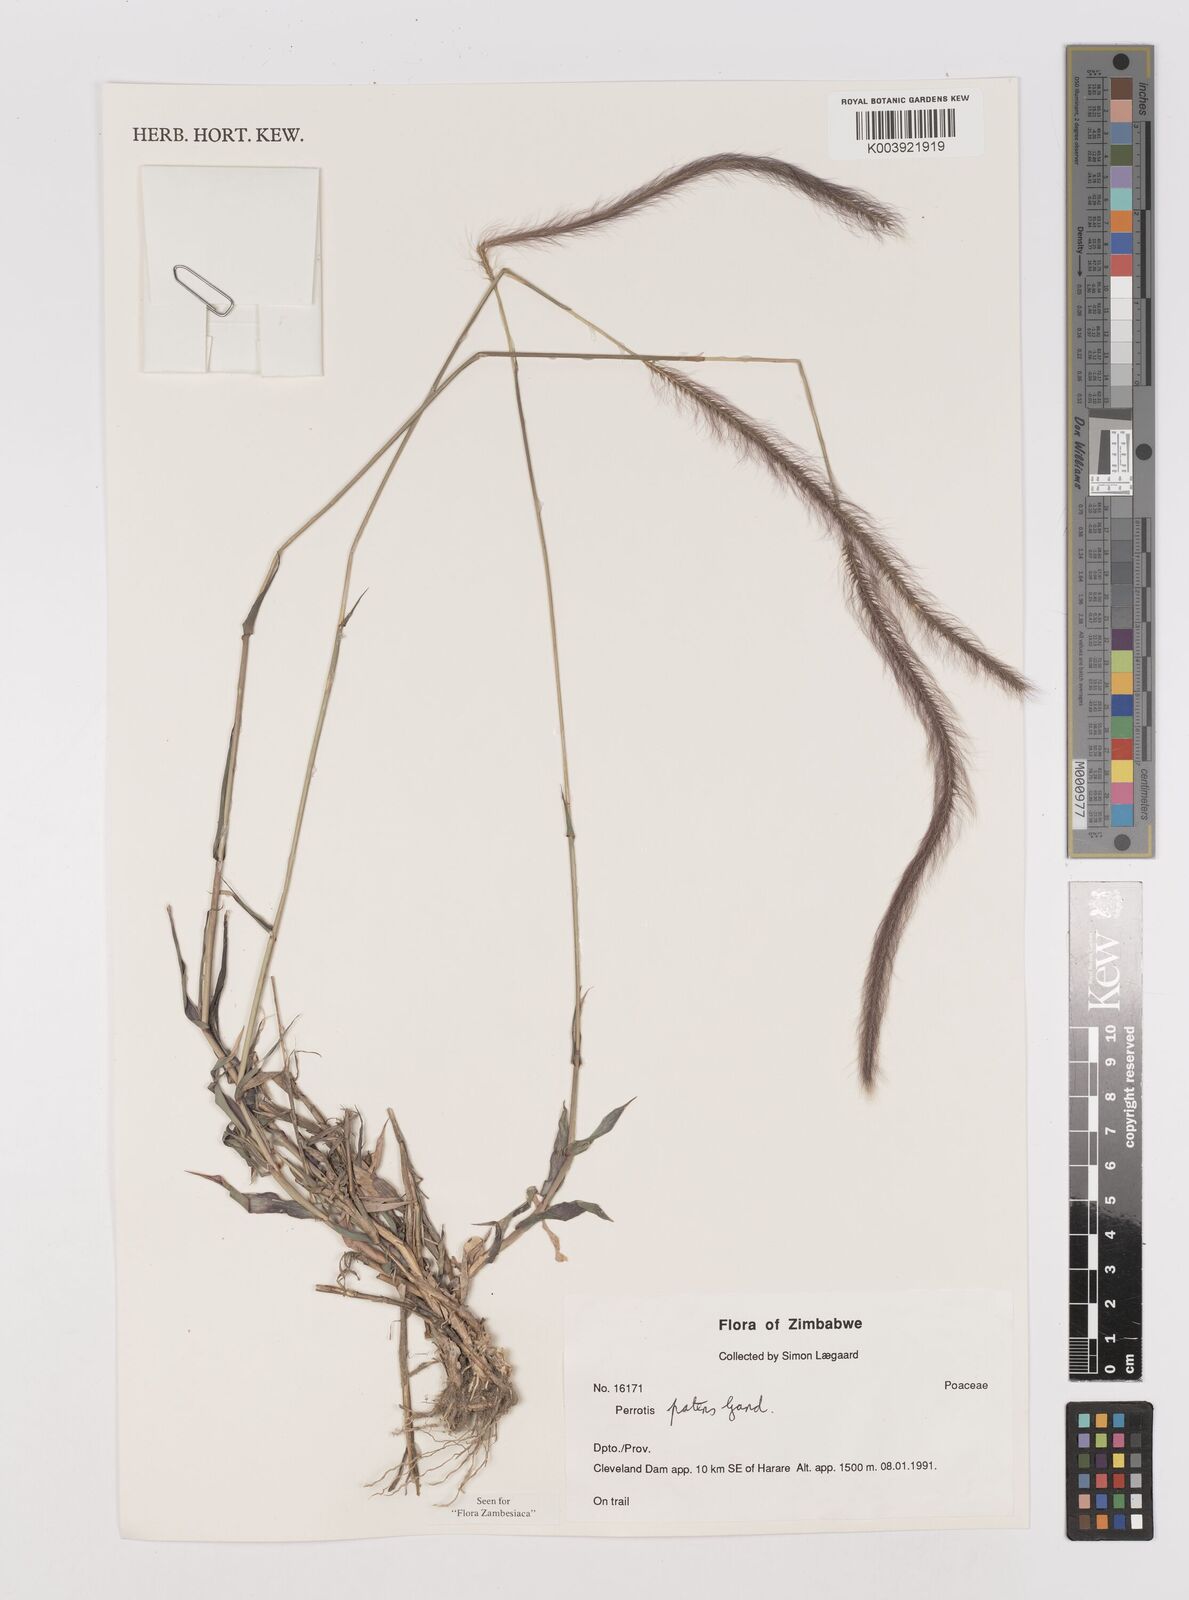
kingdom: Plantae
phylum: Tracheophyta
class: Liliopsida
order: Poales
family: Poaceae
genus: Perotis
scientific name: Perotis patens
